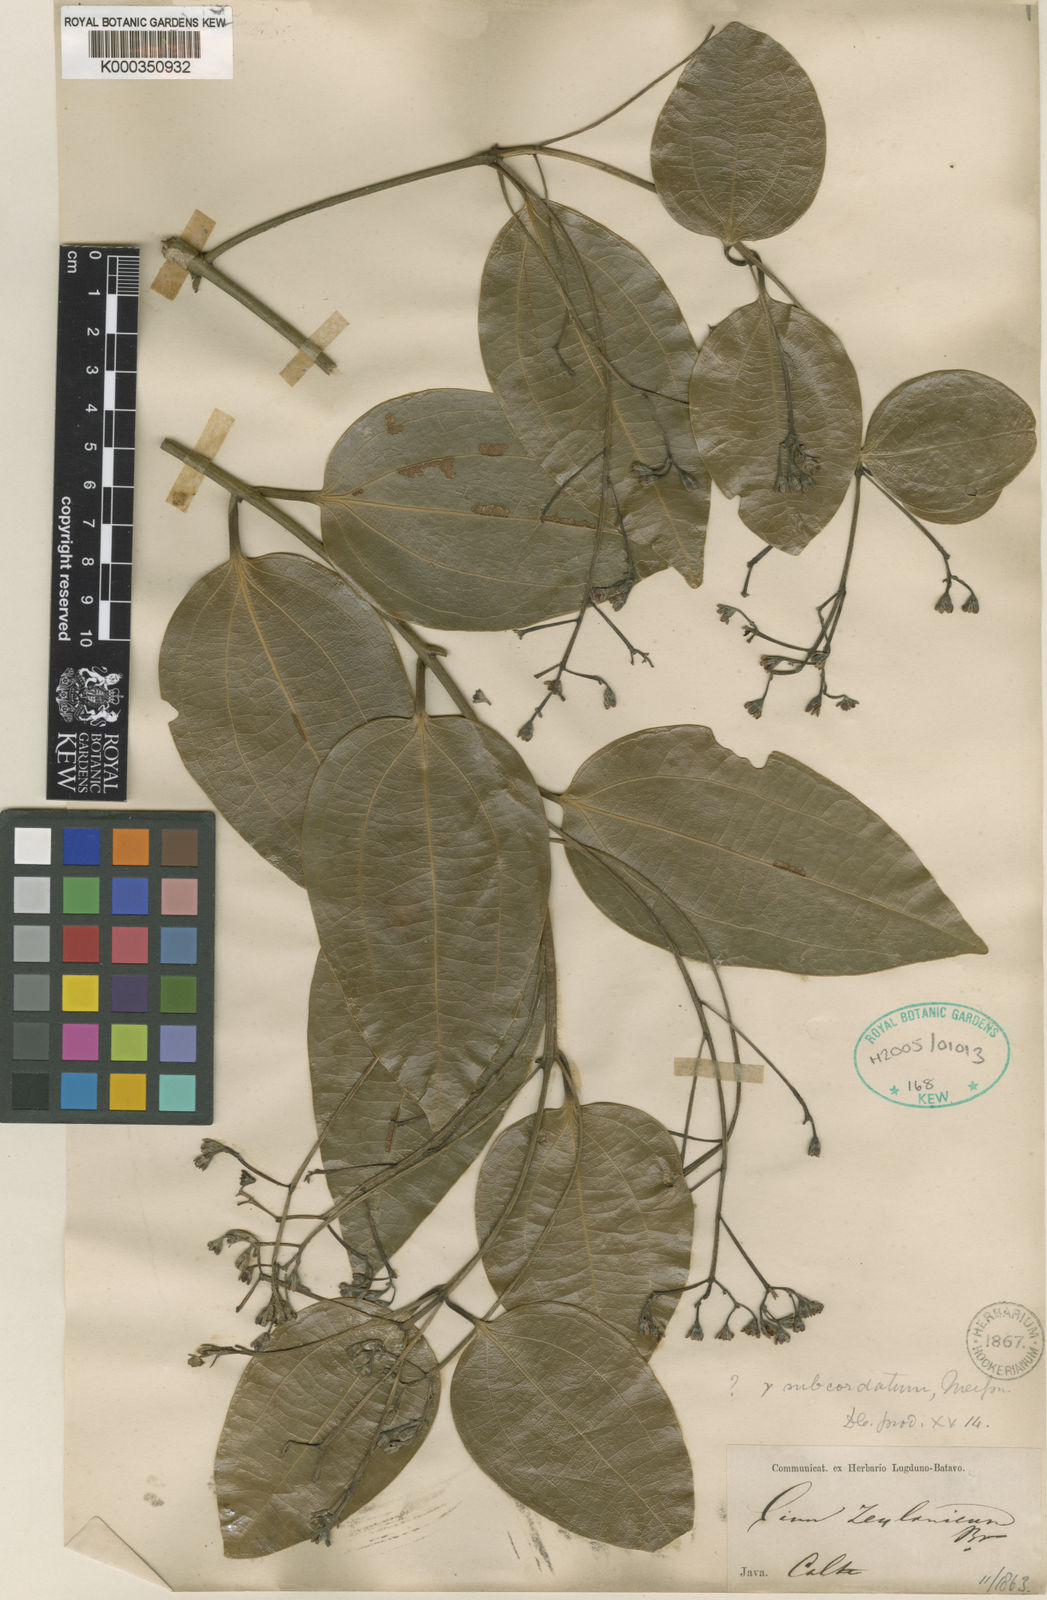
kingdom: Plantae
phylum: Tracheophyta
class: Magnoliopsida
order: Laurales
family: Lauraceae
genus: Cinnamomum
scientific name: Cinnamomum verum
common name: Cinnamon
